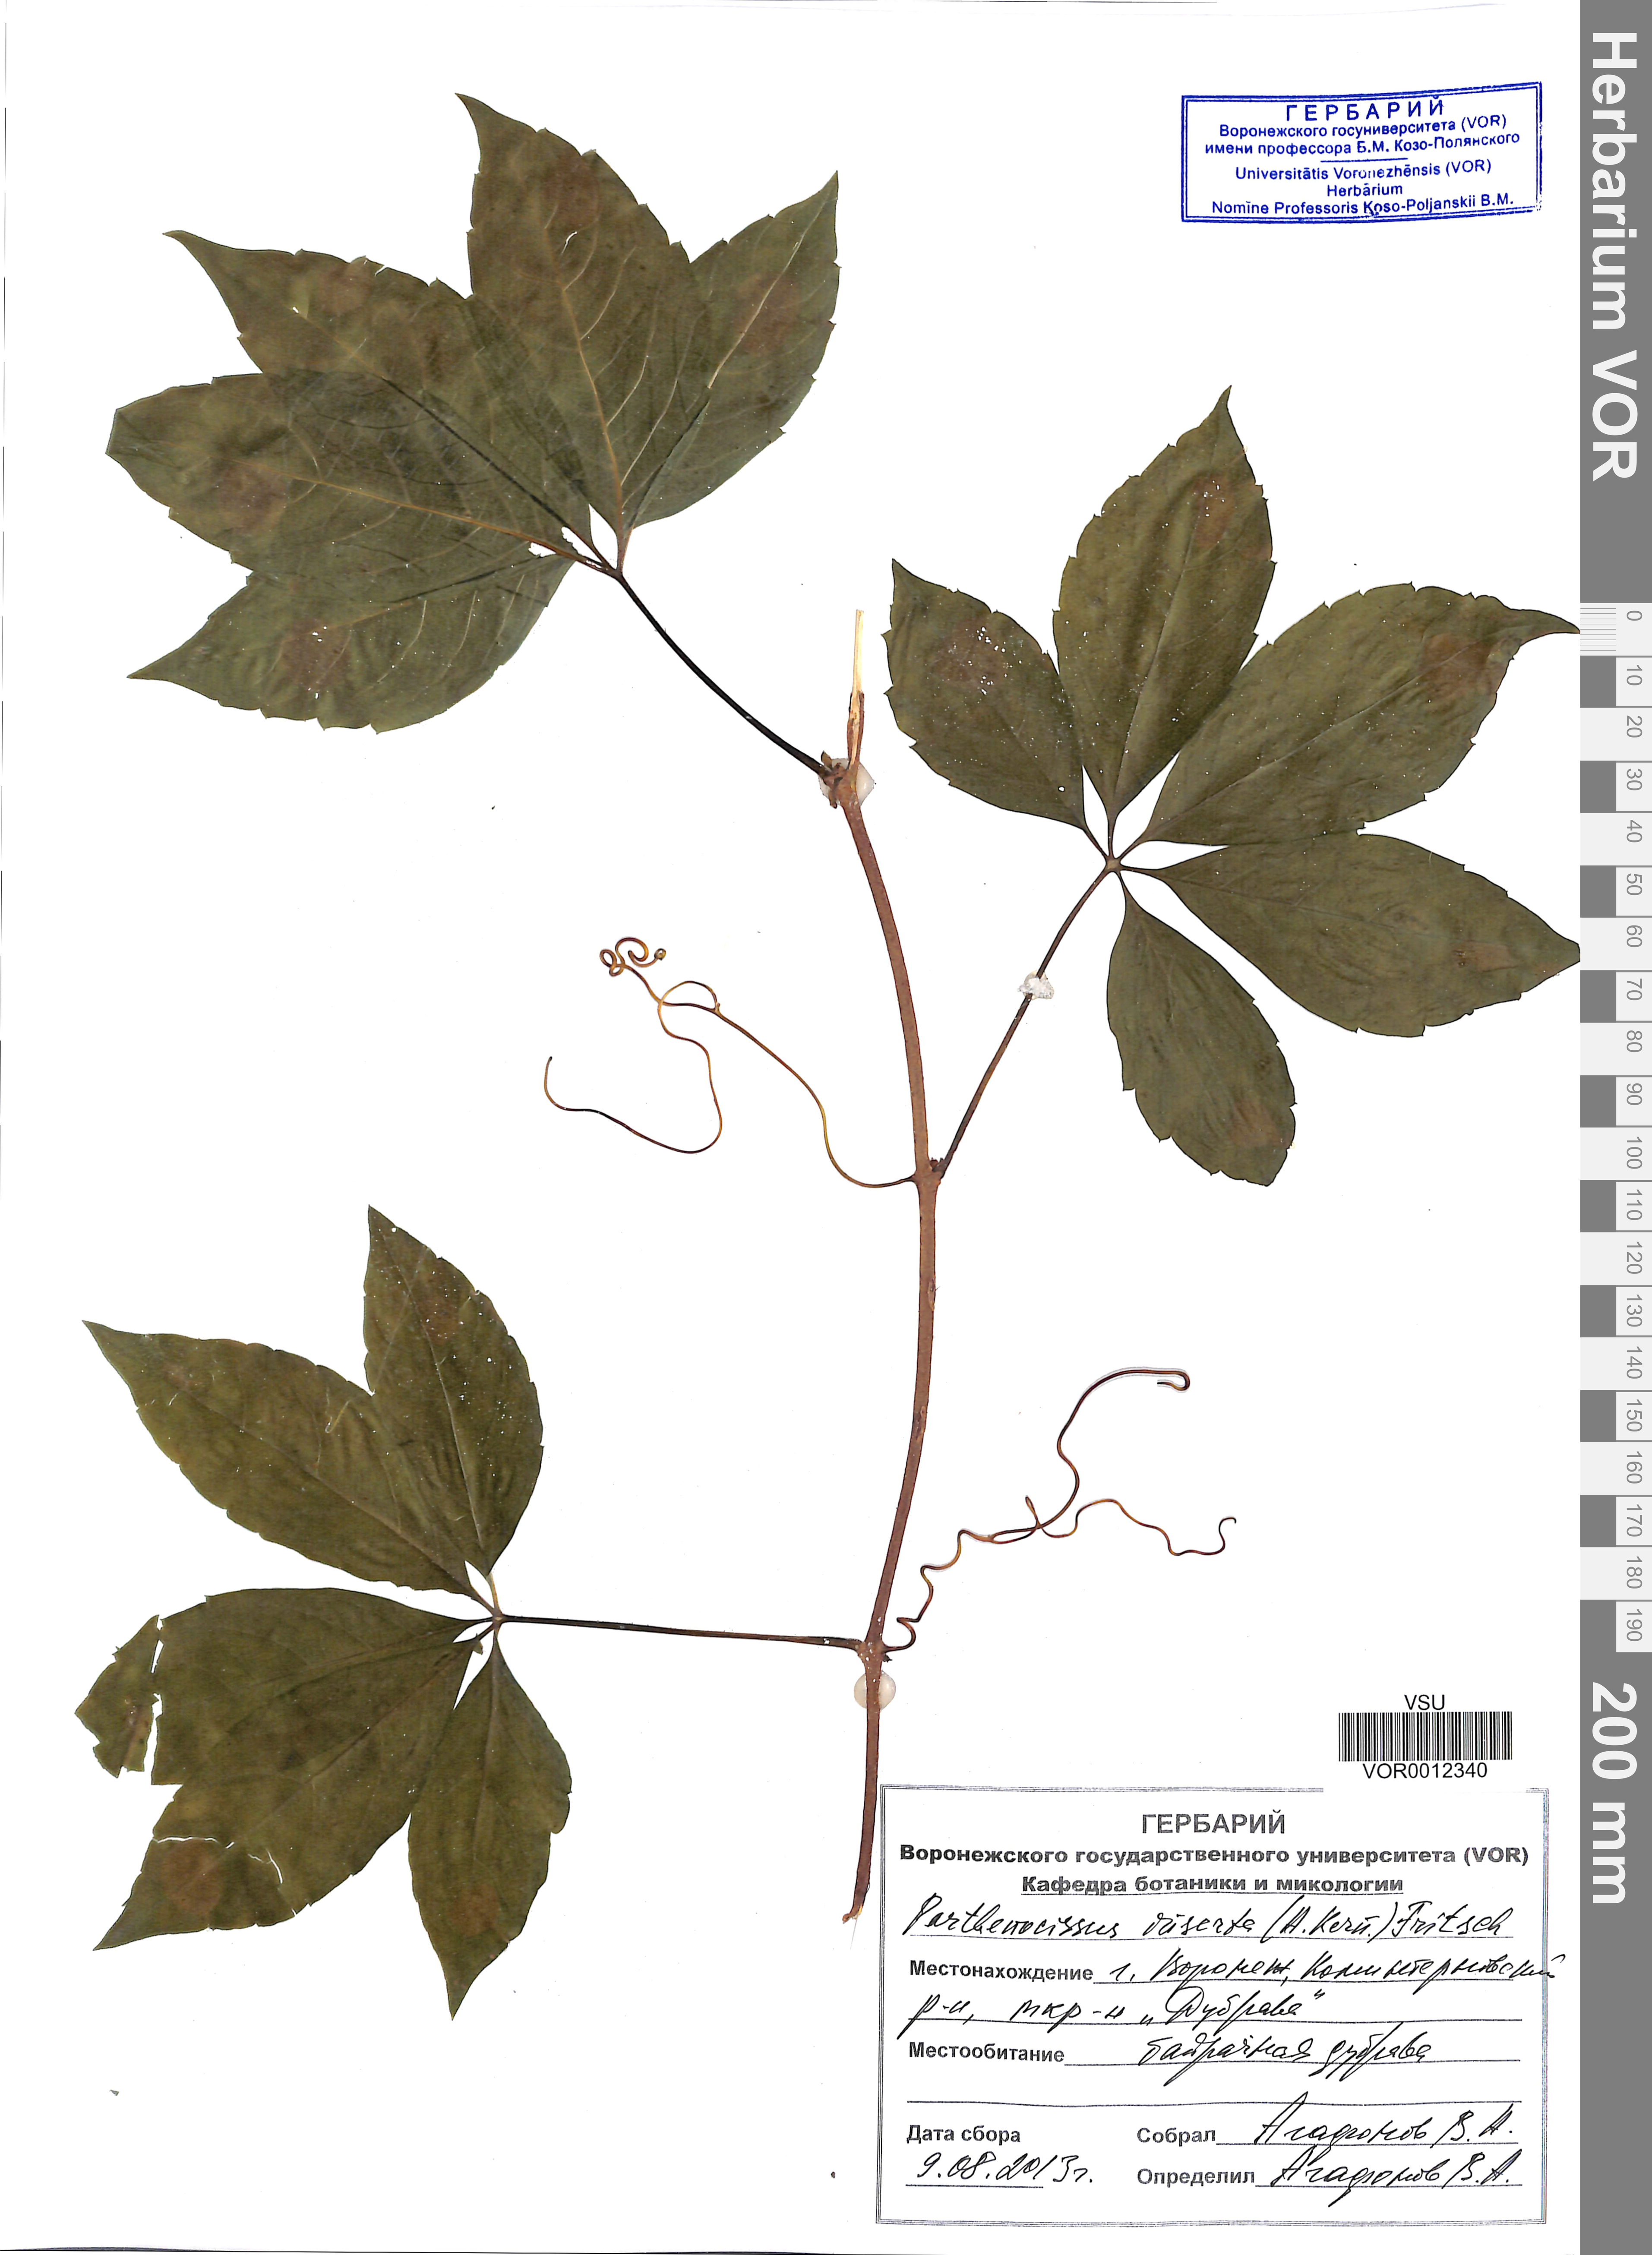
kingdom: Plantae
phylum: Tracheophyta
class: Magnoliopsida
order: Vitales
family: Vitaceae
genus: Parthenocissus
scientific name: Parthenocissus inserta
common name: False virginia-creeper
